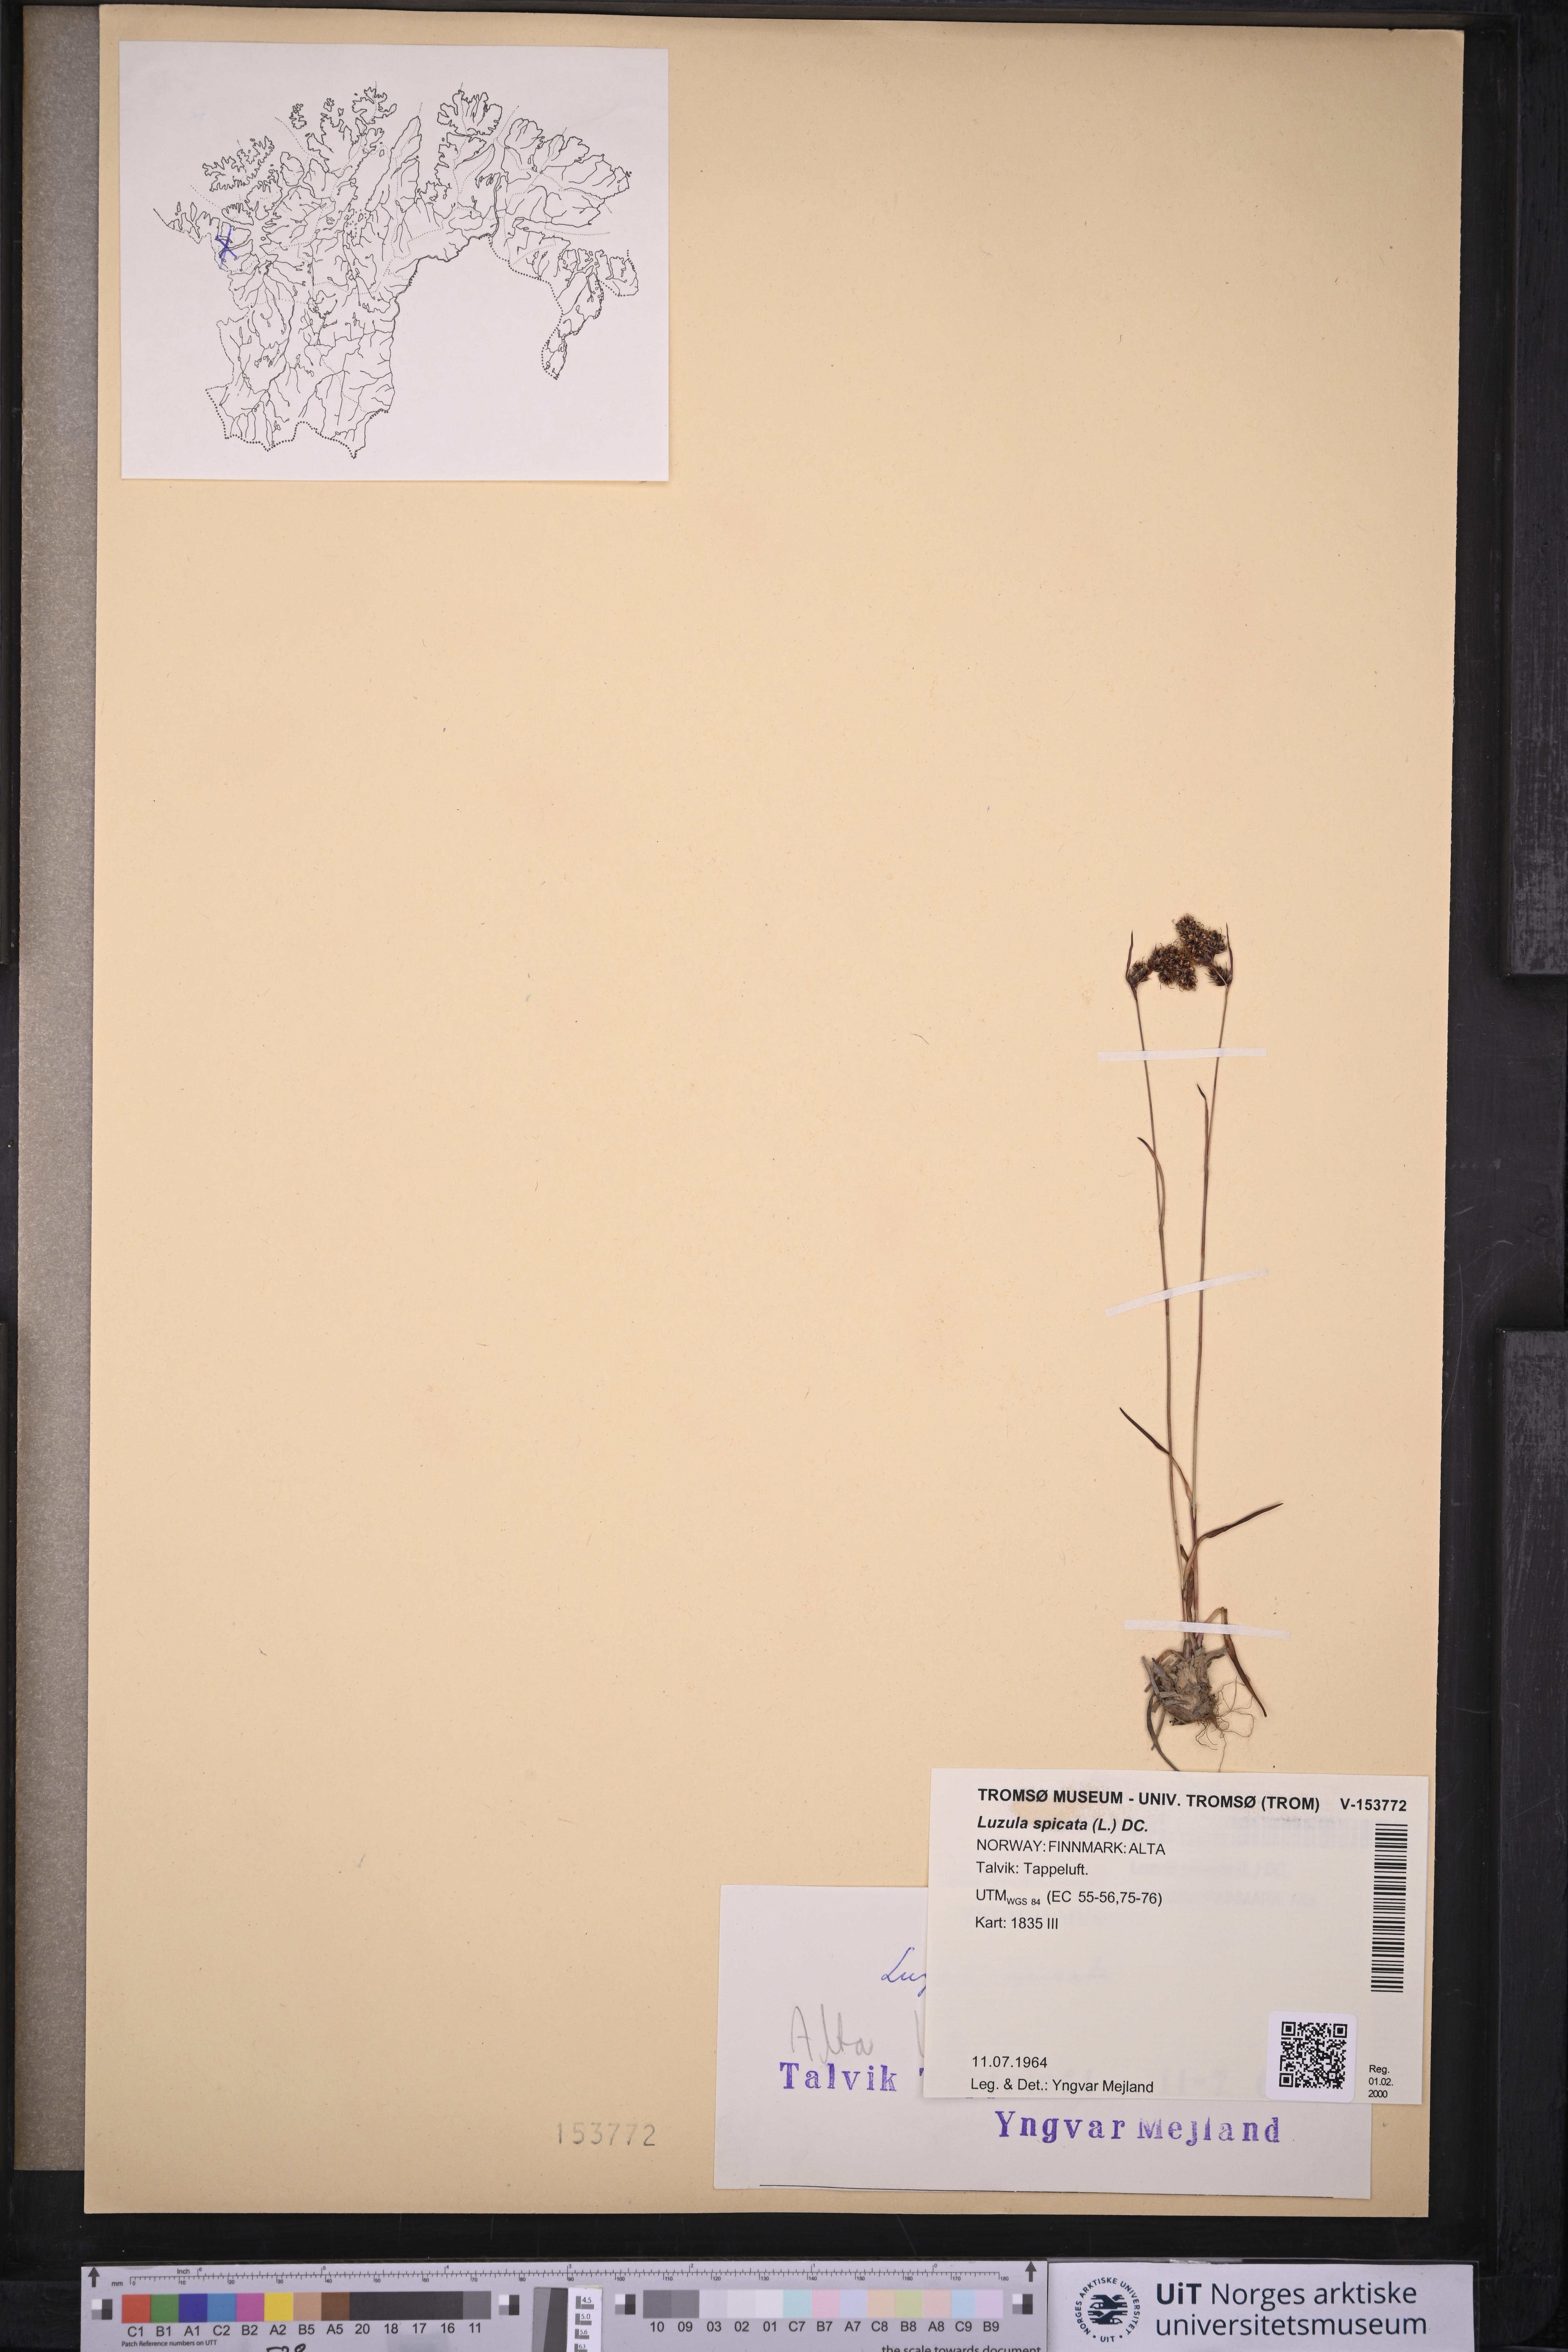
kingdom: Plantae
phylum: Tracheophyta
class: Liliopsida
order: Poales
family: Juncaceae
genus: Luzula
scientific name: Luzula spicata
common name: Spiked wood-rush
